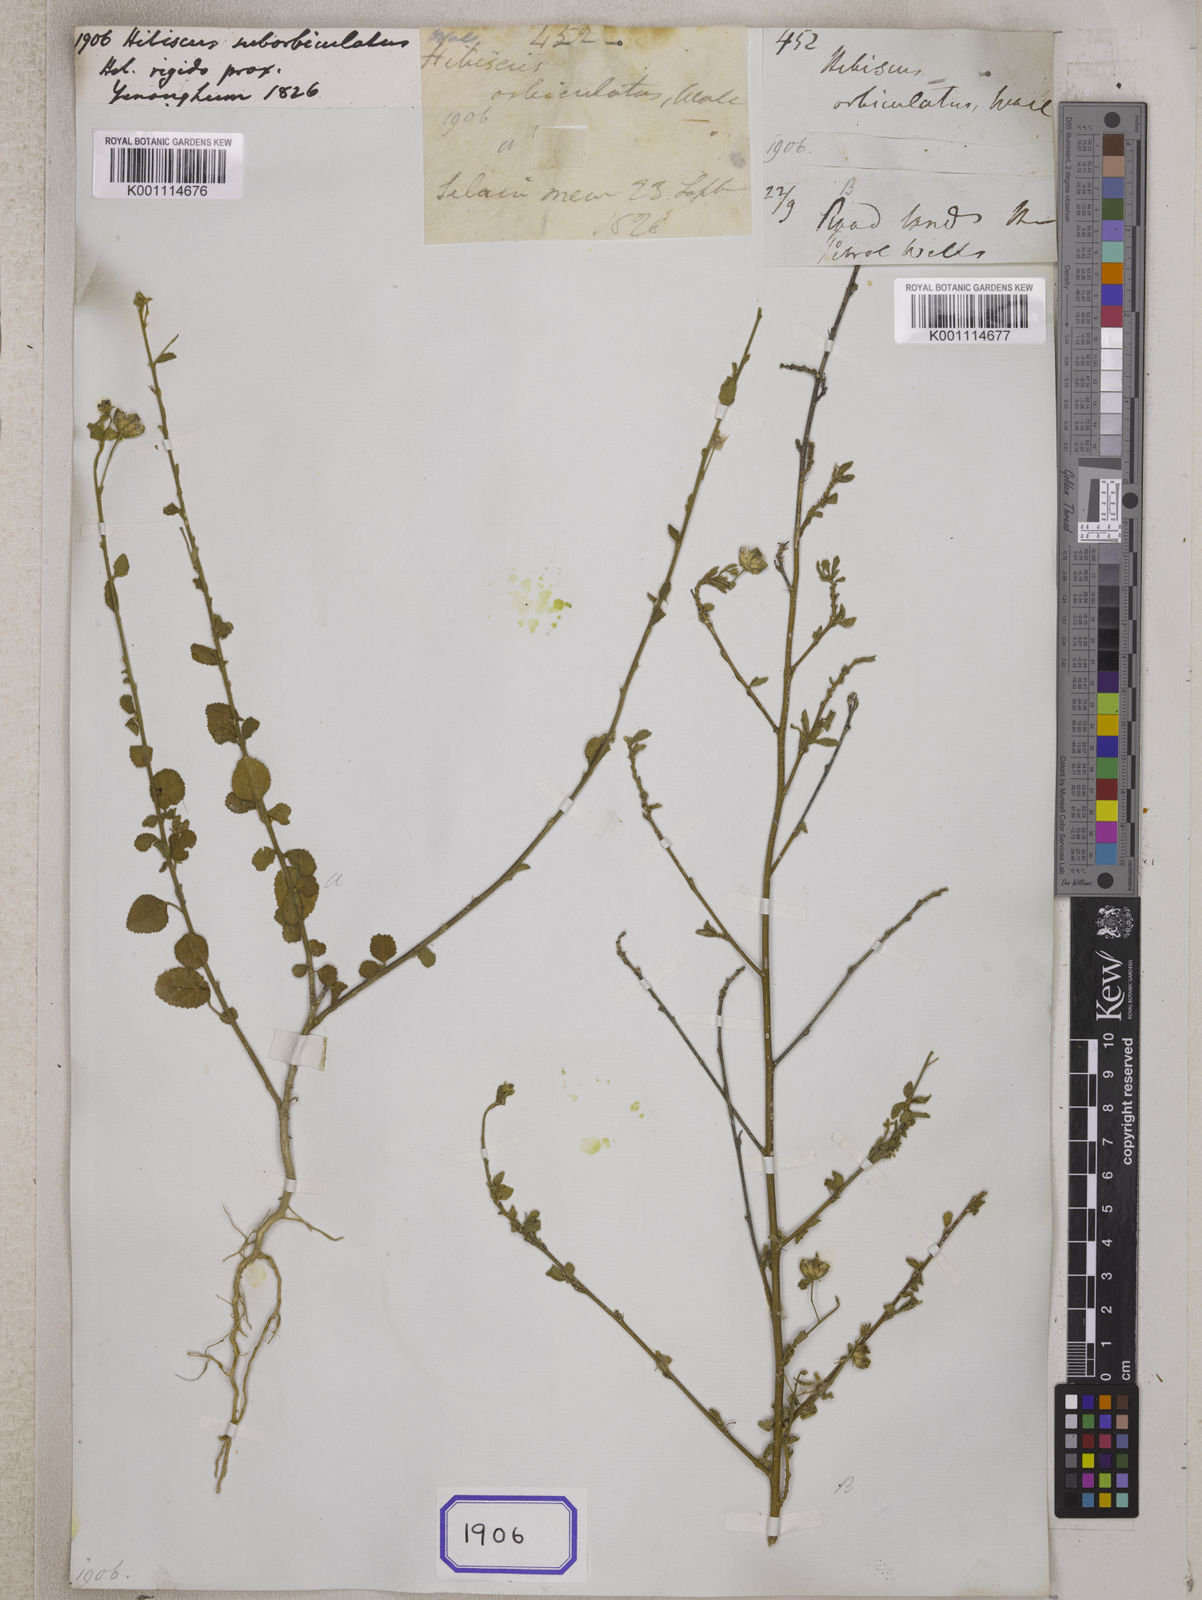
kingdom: Plantae
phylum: Tracheophyta
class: Magnoliopsida
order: Malvales
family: Malvaceae
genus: Hibiscus
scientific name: Hibiscus micranthus
